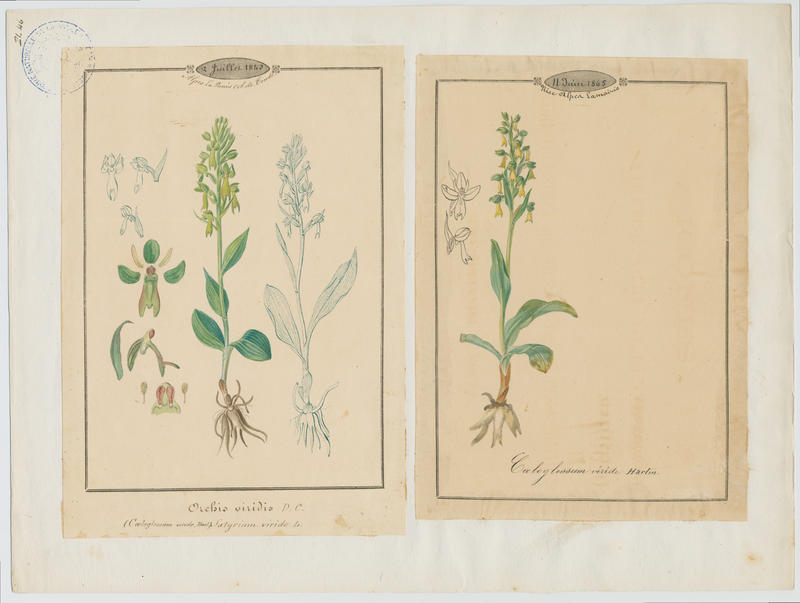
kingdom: Plantae
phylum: Tracheophyta
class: Liliopsida
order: Asparagales
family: Orchidaceae
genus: Dactylorhiza
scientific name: Dactylorhiza viridis
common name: Longbract frog orchid
